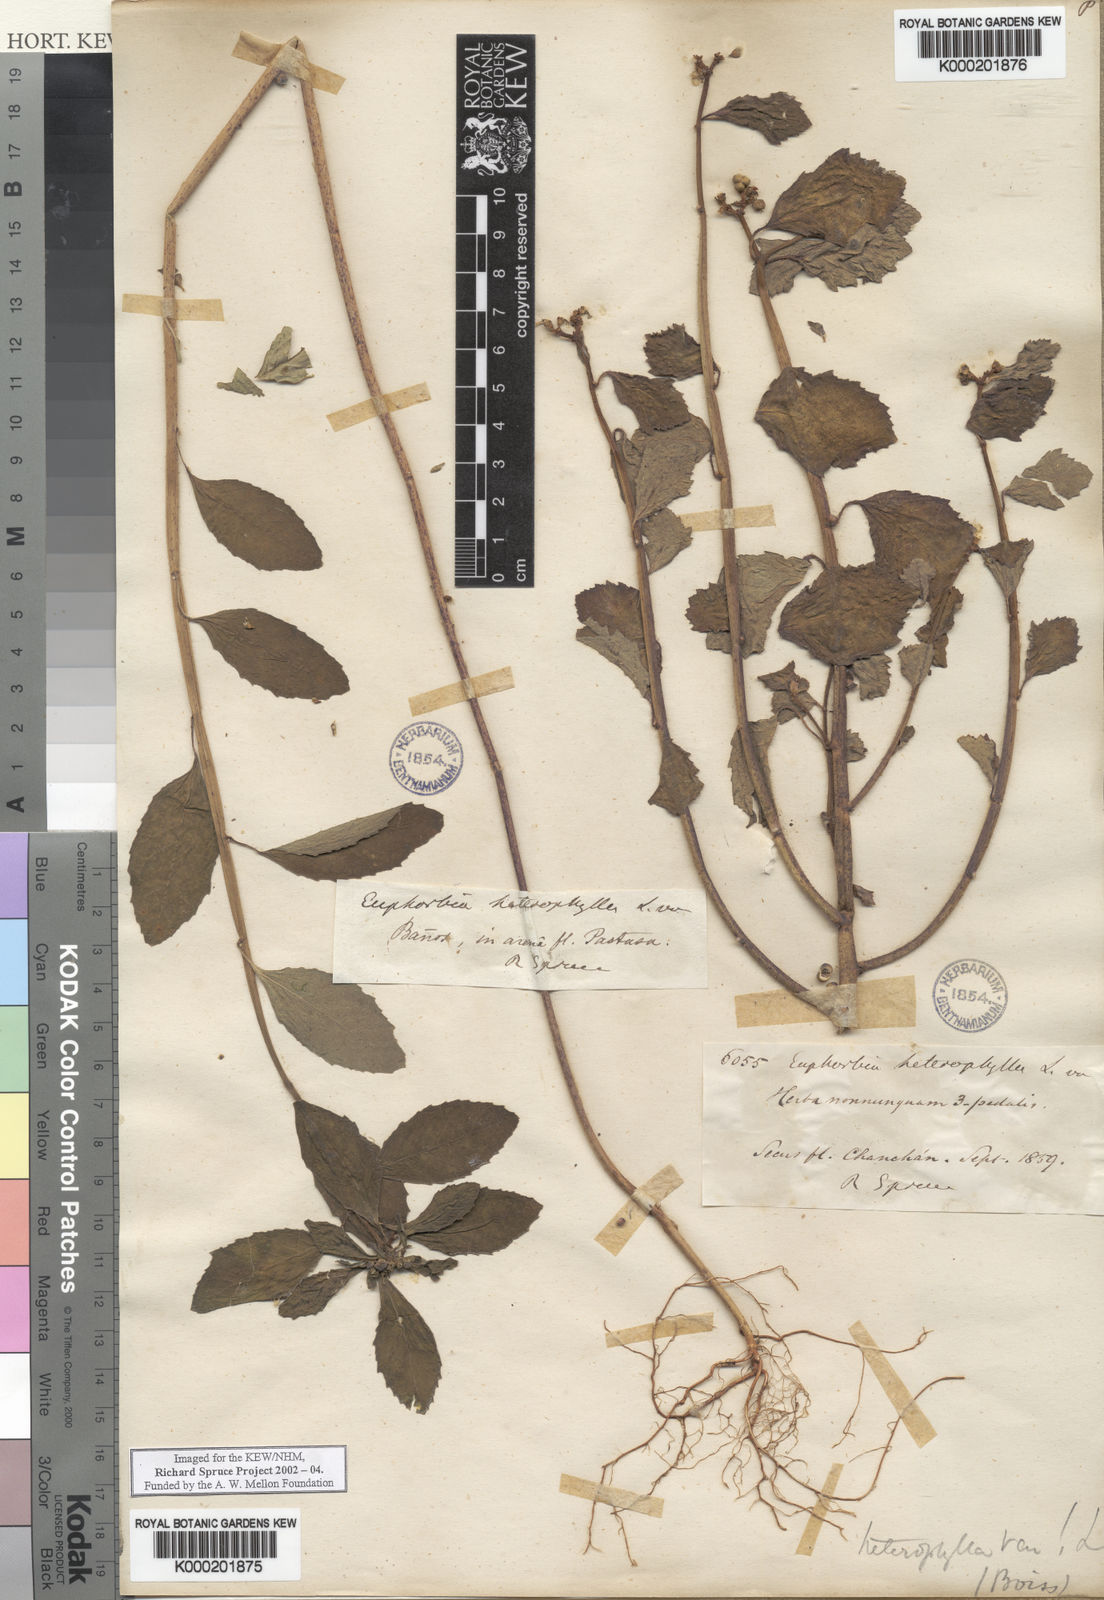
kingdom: Plantae
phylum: Tracheophyta
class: Magnoliopsida
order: Malpighiales
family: Euphorbiaceae
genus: Euphorbia
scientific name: Euphorbia heterophylla
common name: Mexican fireplant
